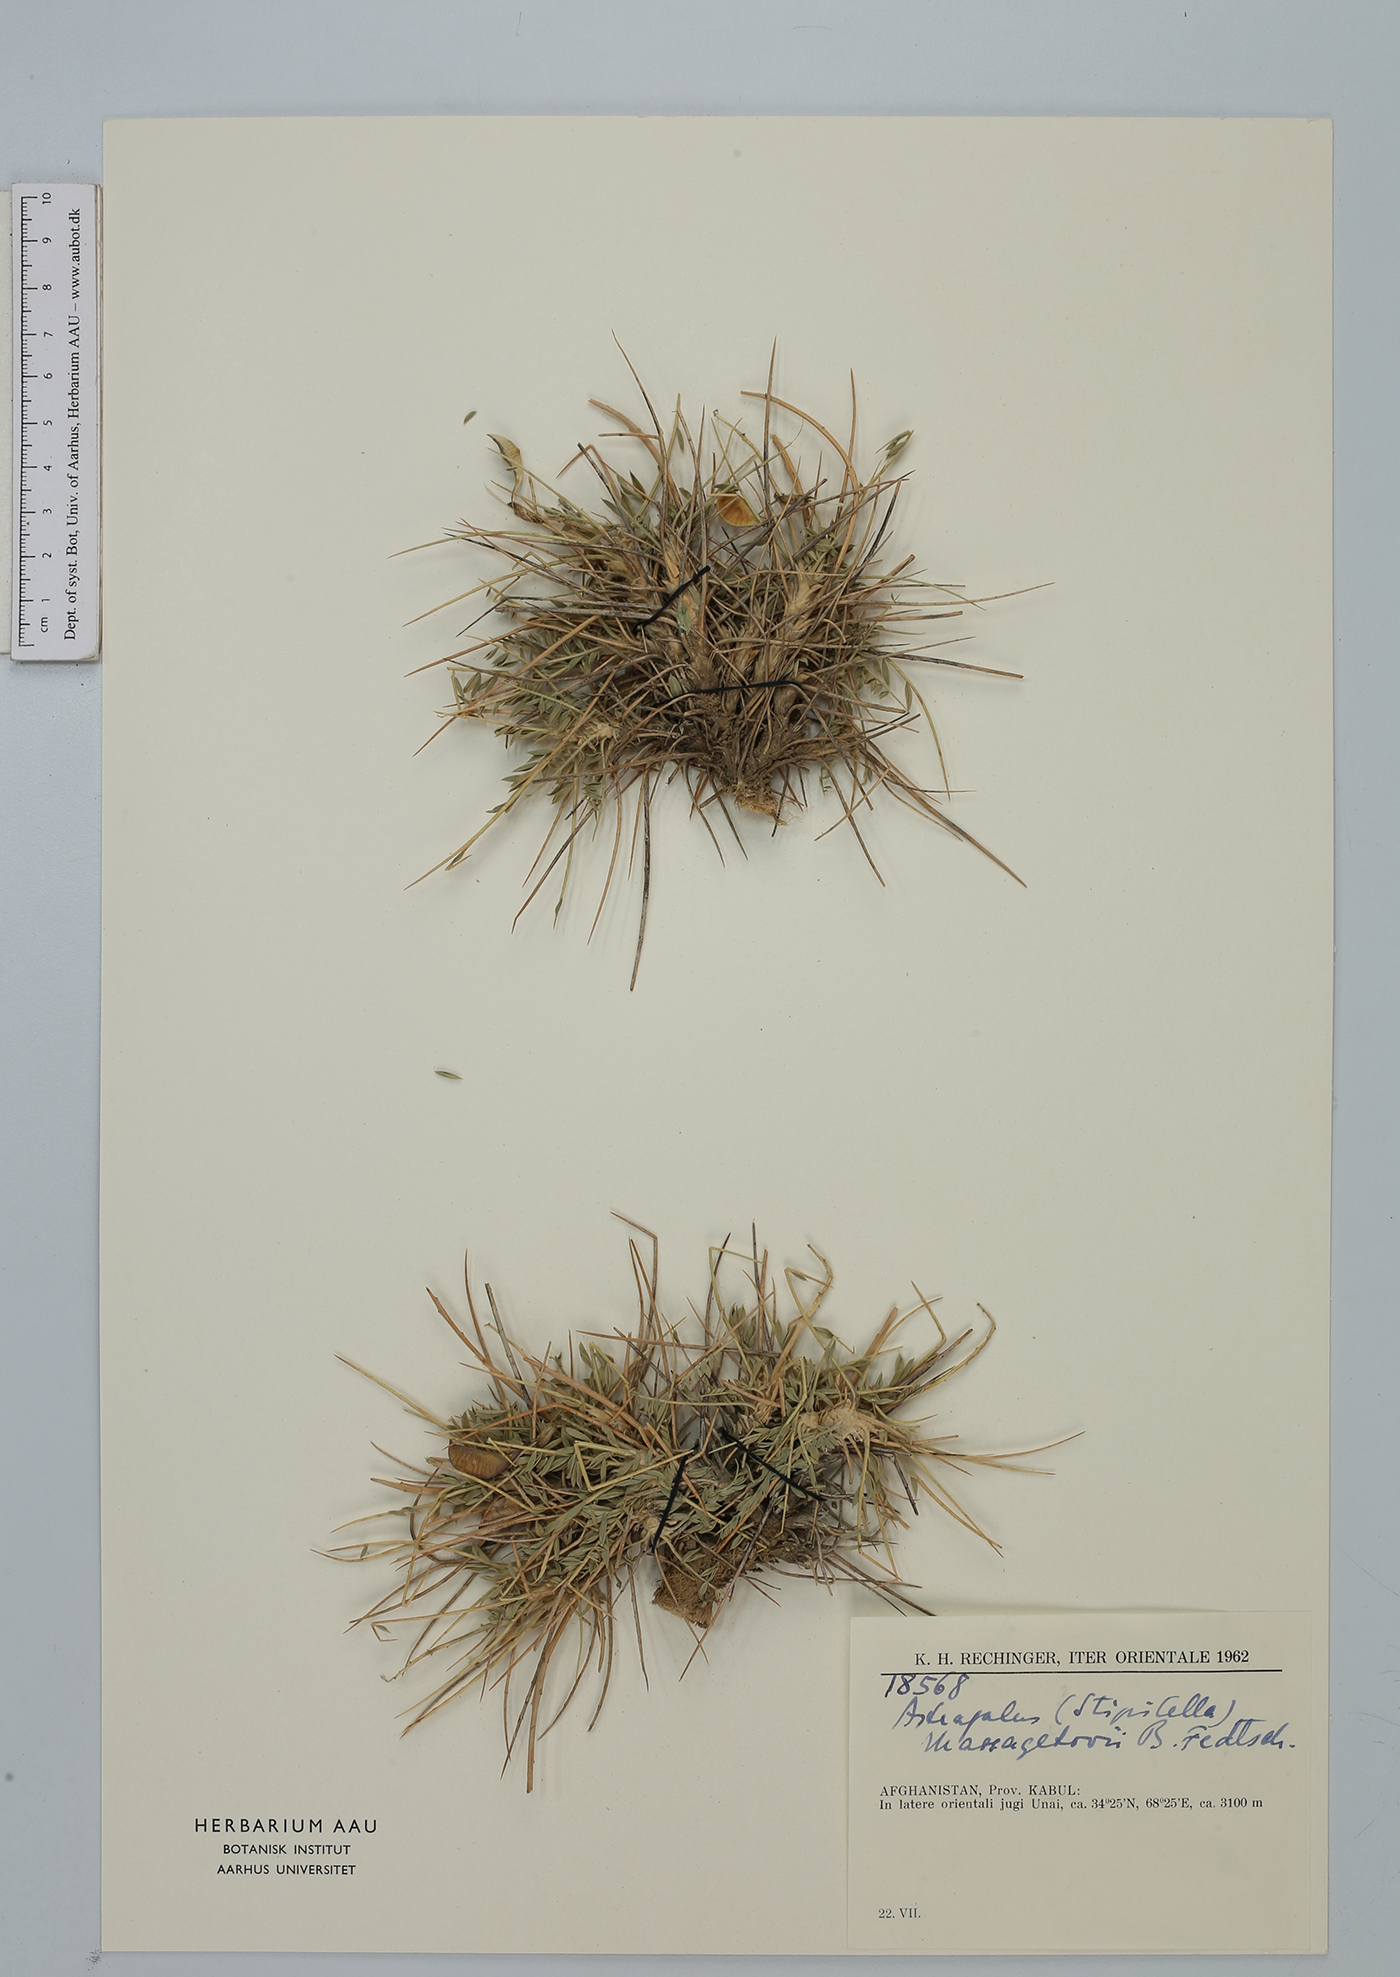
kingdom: Plantae
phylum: Tracheophyta
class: Magnoliopsida
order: Fabales
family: Fabaceae
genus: Astragalus
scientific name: Astragalus stipitatus
